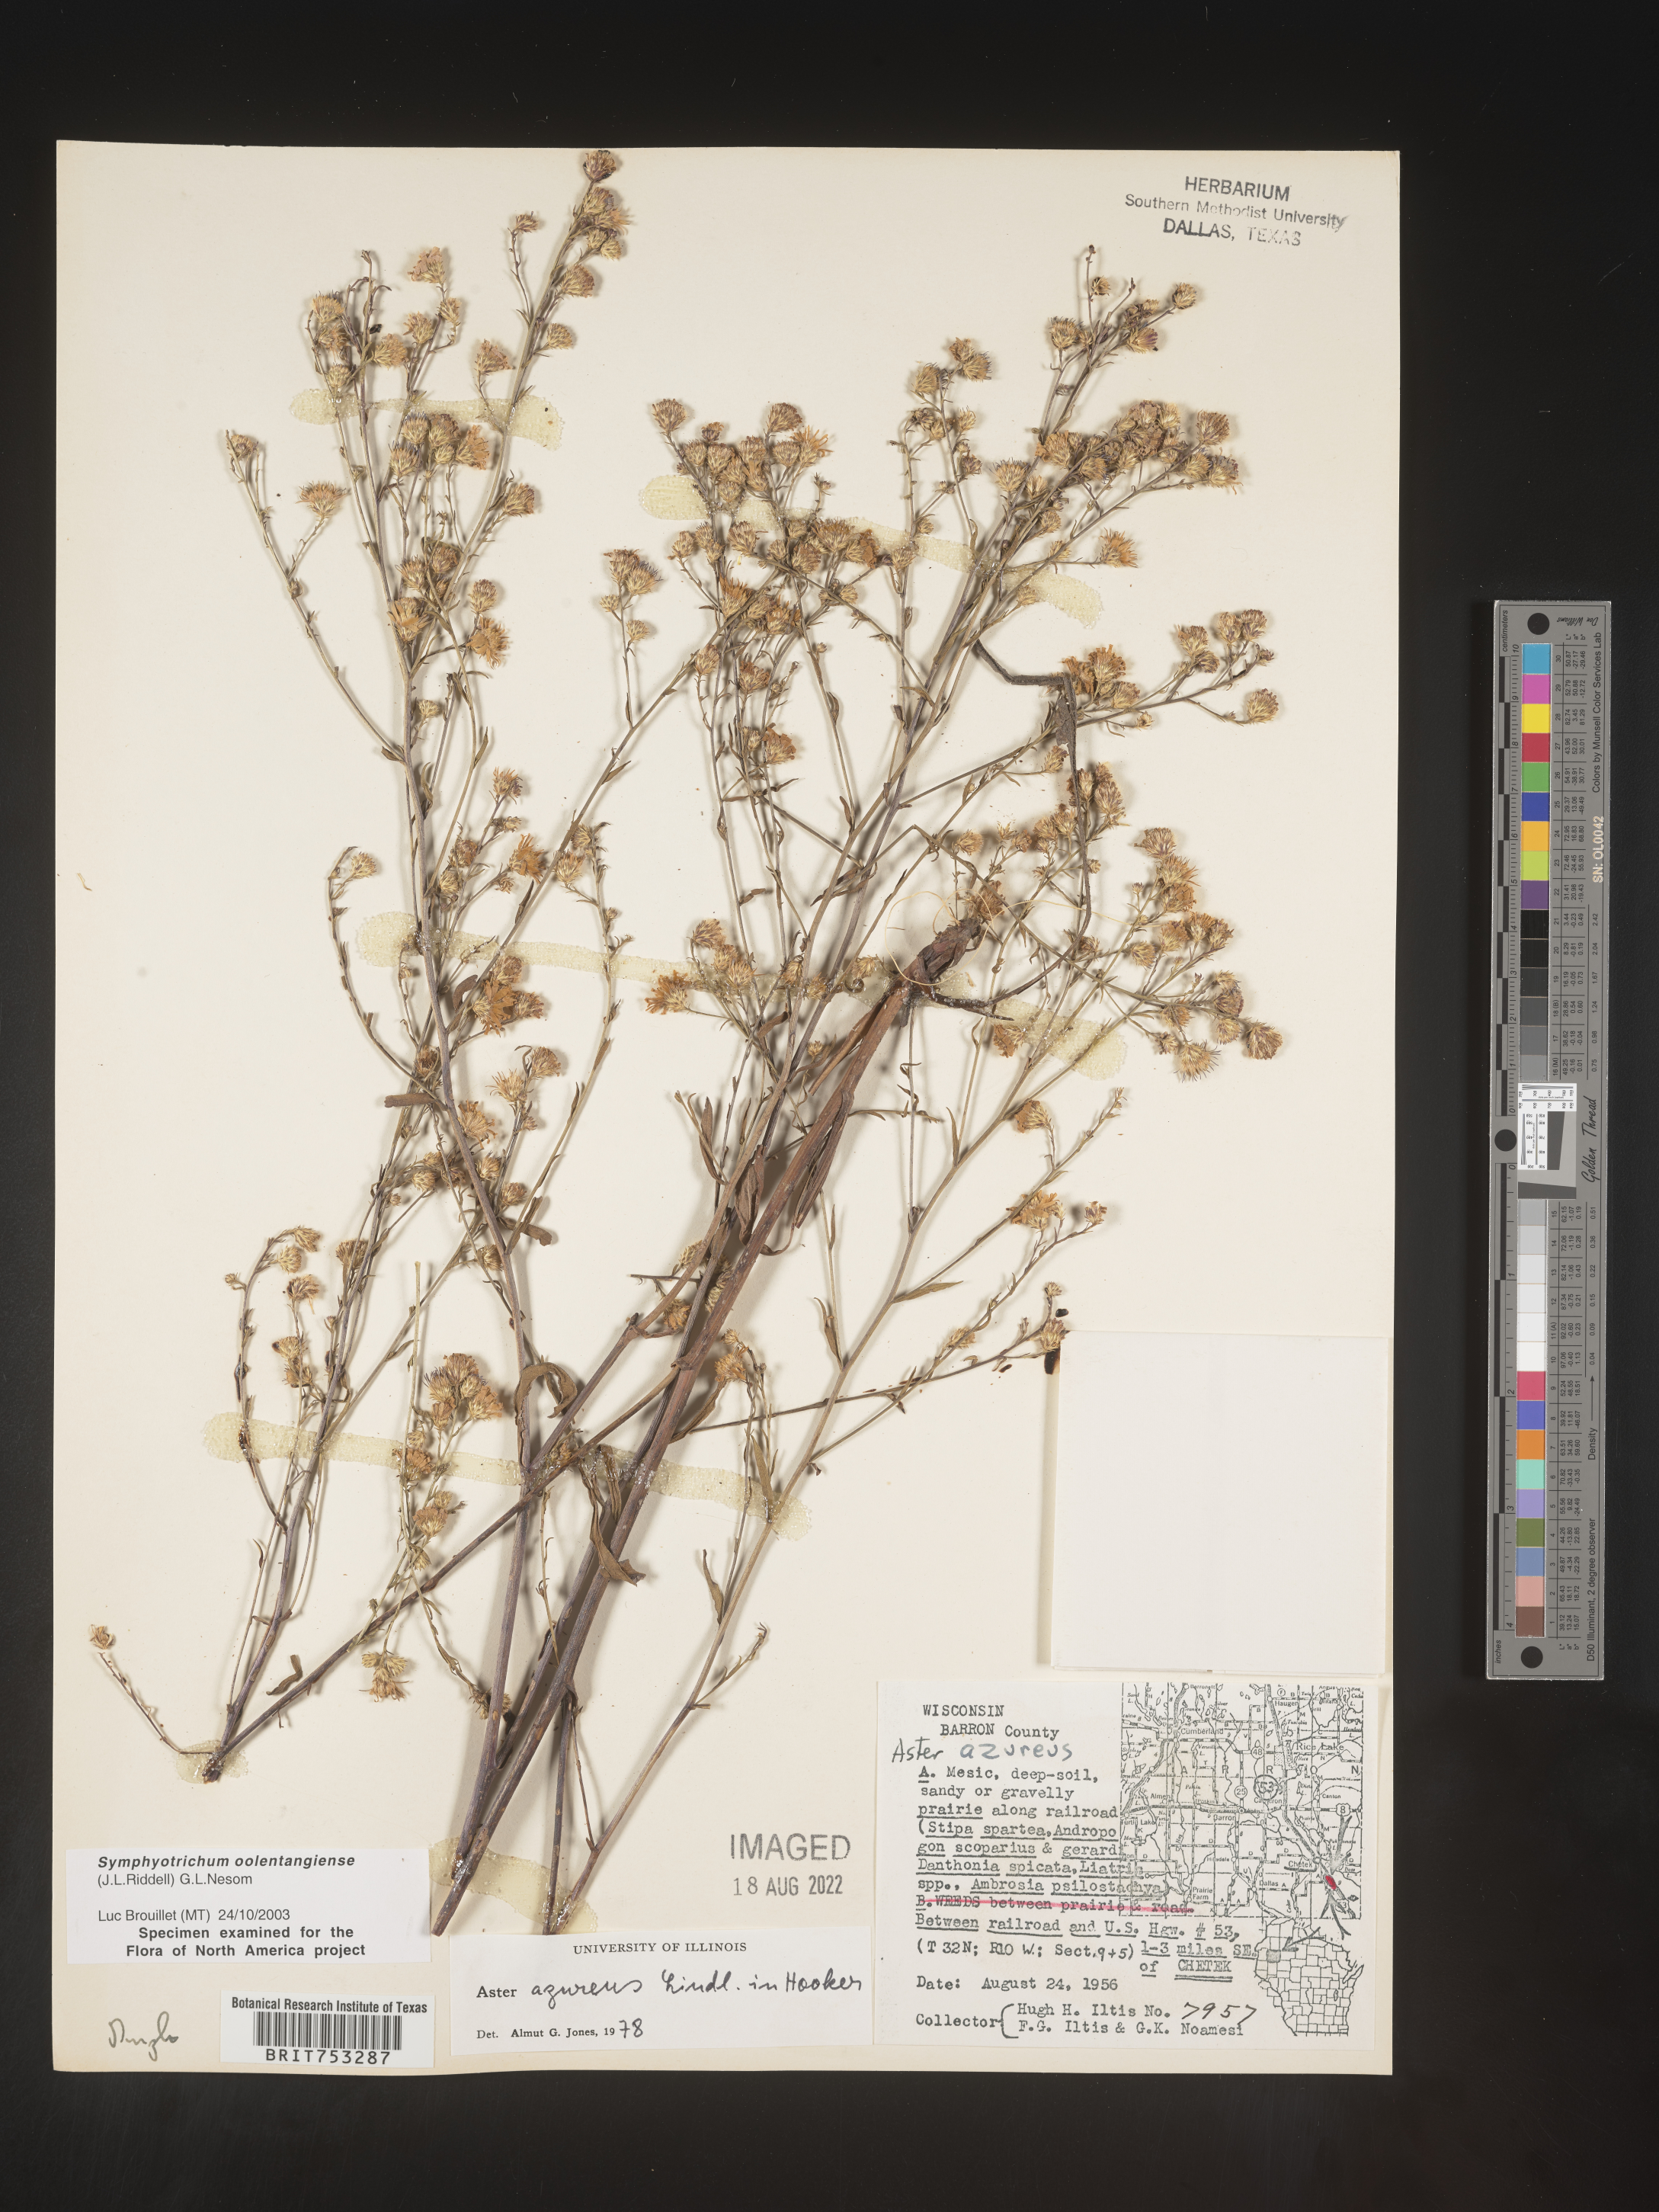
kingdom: Plantae
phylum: Tracheophyta
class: Magnoliopsida
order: Asterales
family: Asteraceae
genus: Symphyotrichum
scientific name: Symphyotrichum oolentangiense
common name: Azure aster
